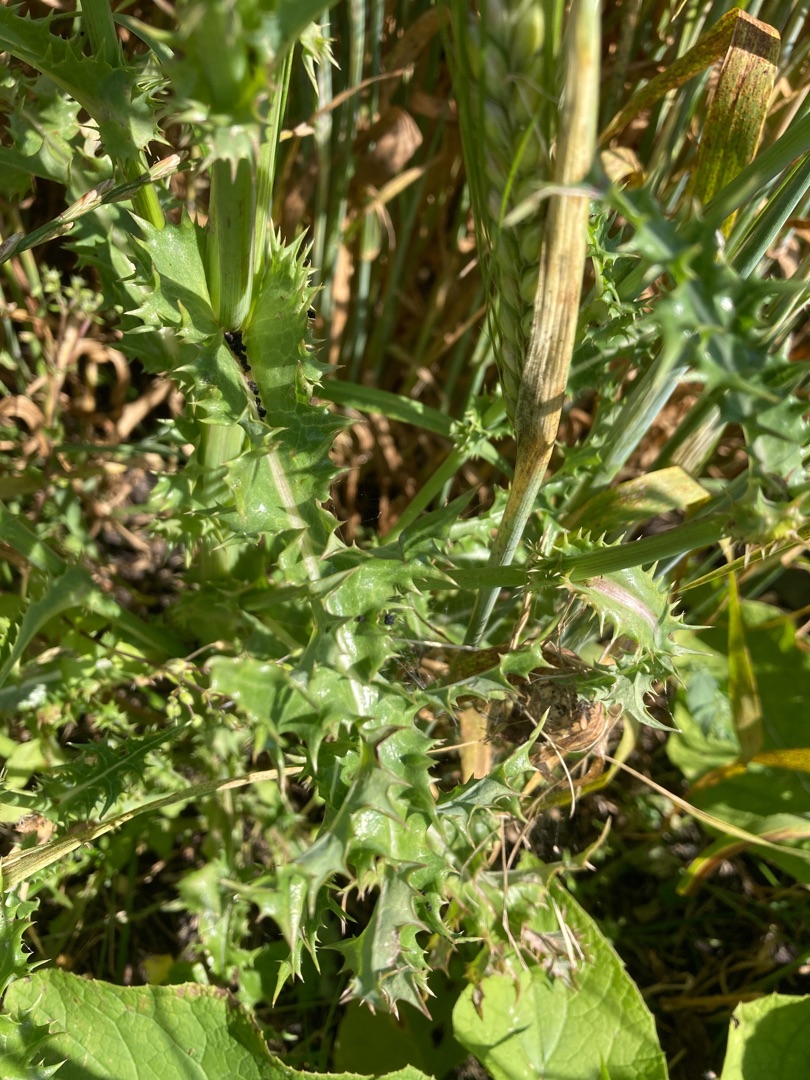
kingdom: Plantae
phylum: Tracheophyta
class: Magnoliopsida
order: Asterales
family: Asteraceae
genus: Sonchus
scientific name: Sonchus asper
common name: Ru svinemælk
